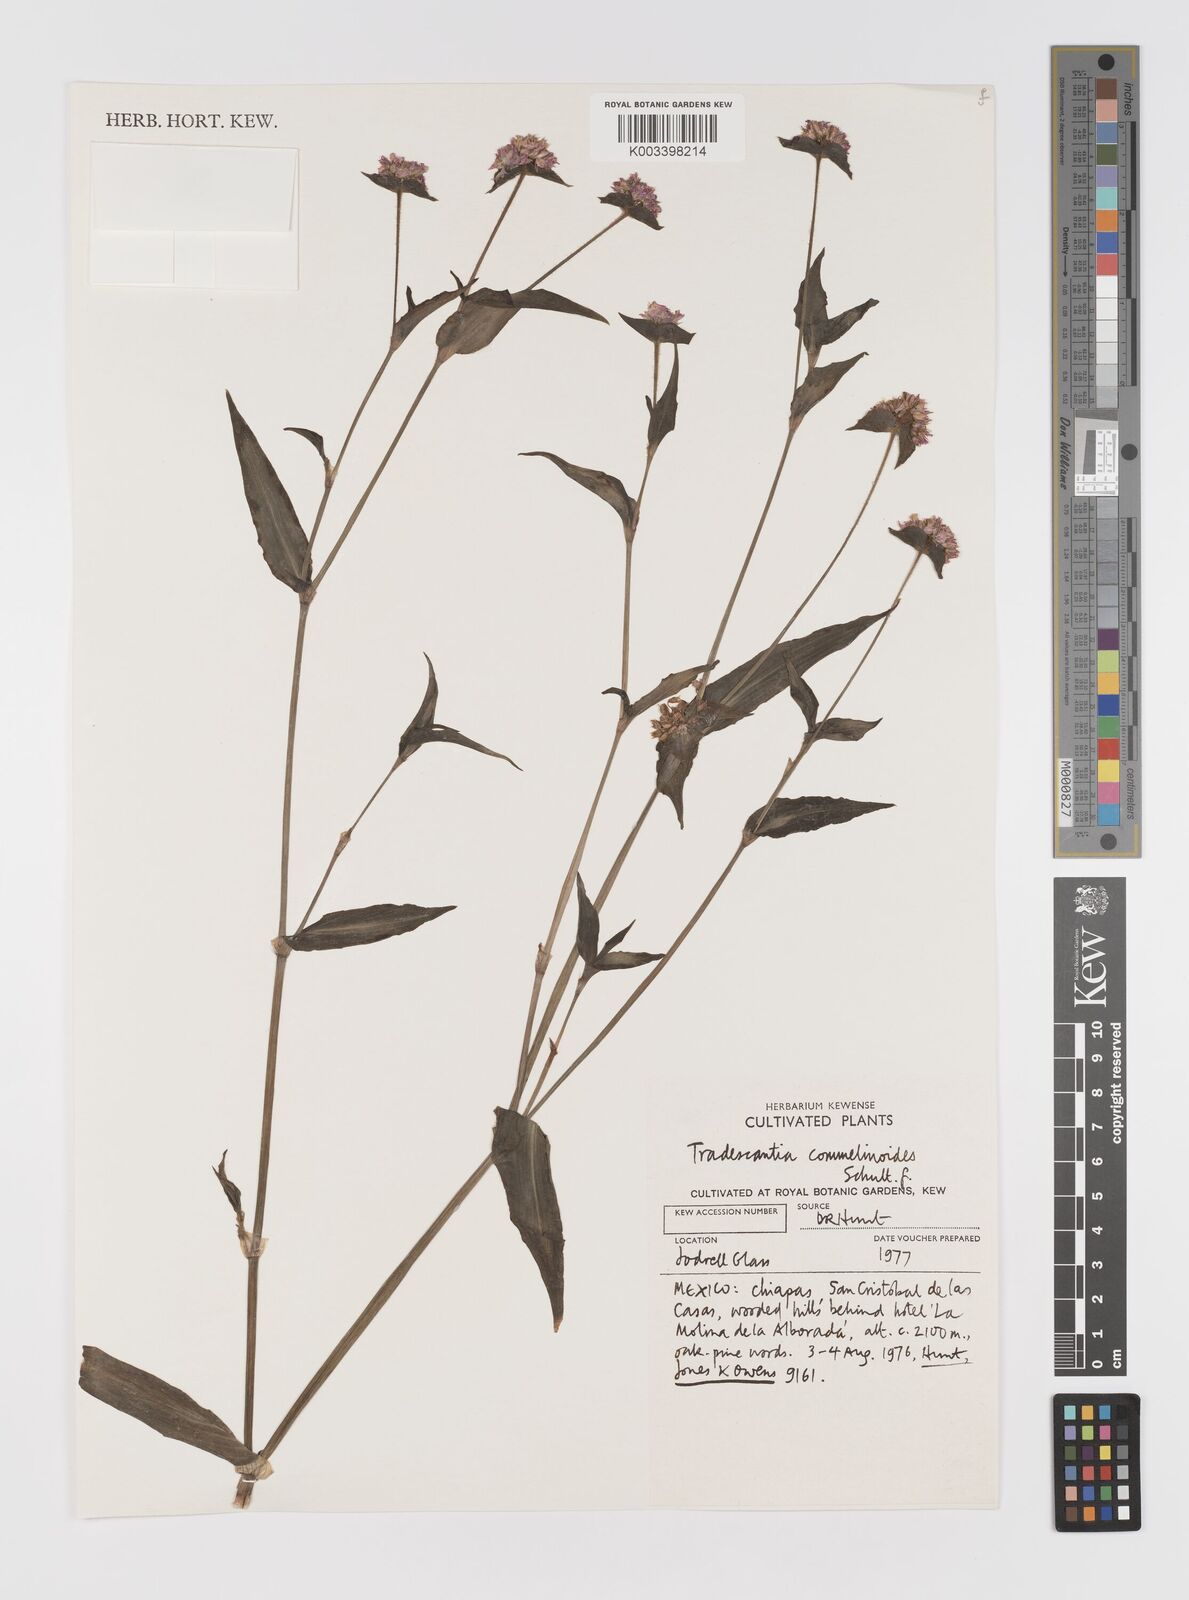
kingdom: Plantae
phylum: Tracheophyta
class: Liliopsida
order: Commelinales
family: Commelinaceae
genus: Tradescantia
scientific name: Tradescantia commelinoides
